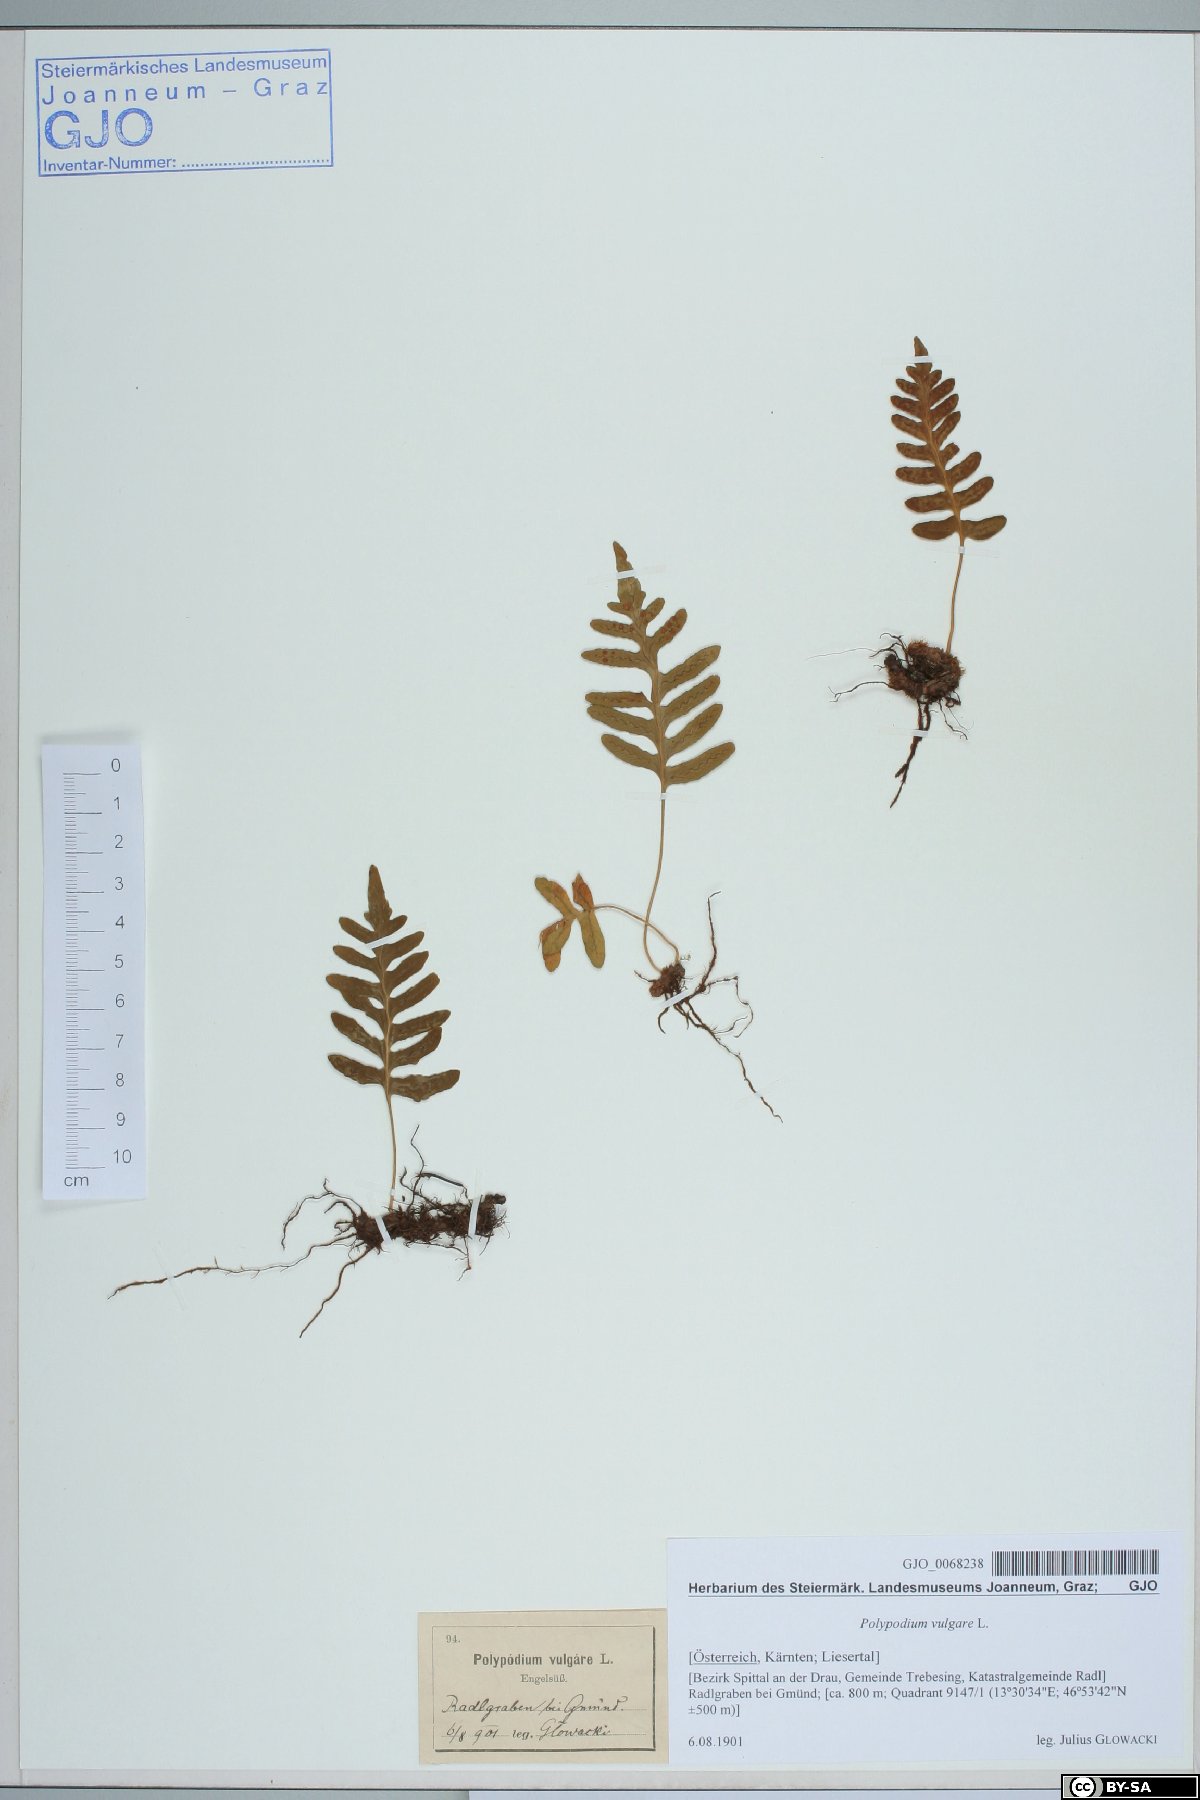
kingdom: Plantae
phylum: Tracheophyta
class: Polypodiopsida
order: Polypodiales
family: Polypodiaceae
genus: Polypodium
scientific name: Polypodium vulgare
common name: Common polypody
